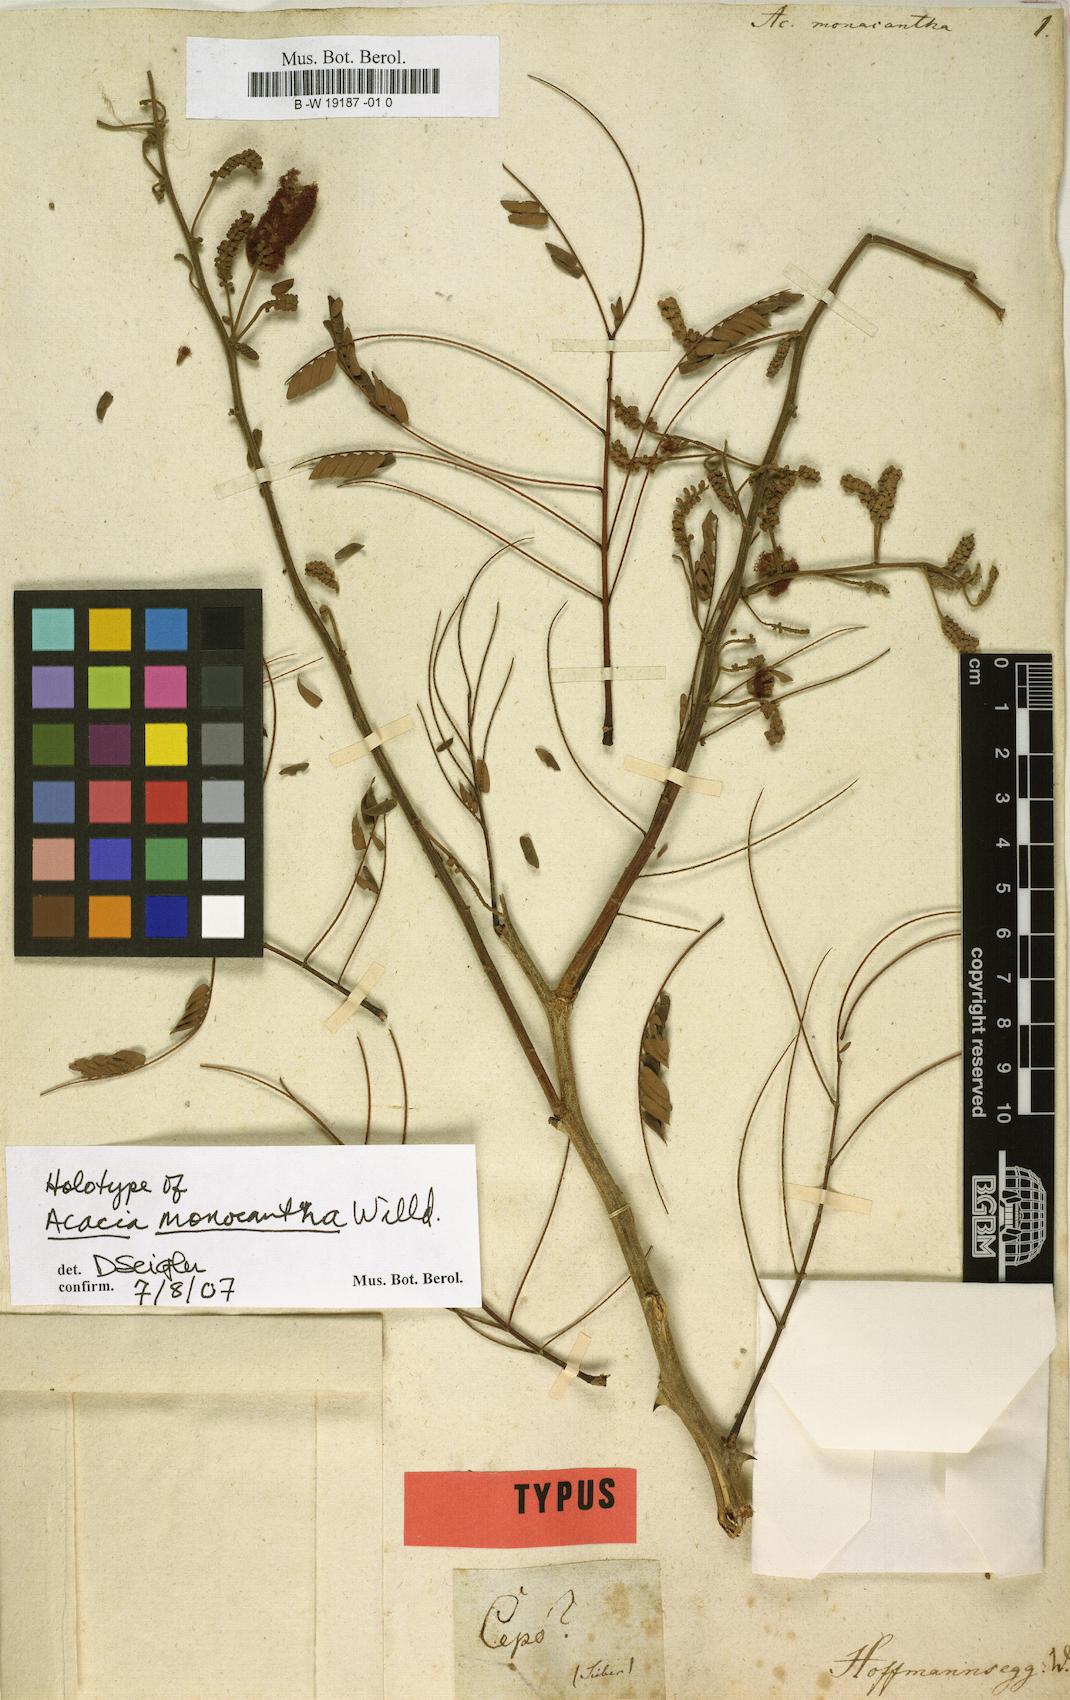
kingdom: Plantae
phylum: Tracheophyta
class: Magnoliopsida
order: Fabales
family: Fabaceae
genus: Senegalia
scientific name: Senegalia monacantha
